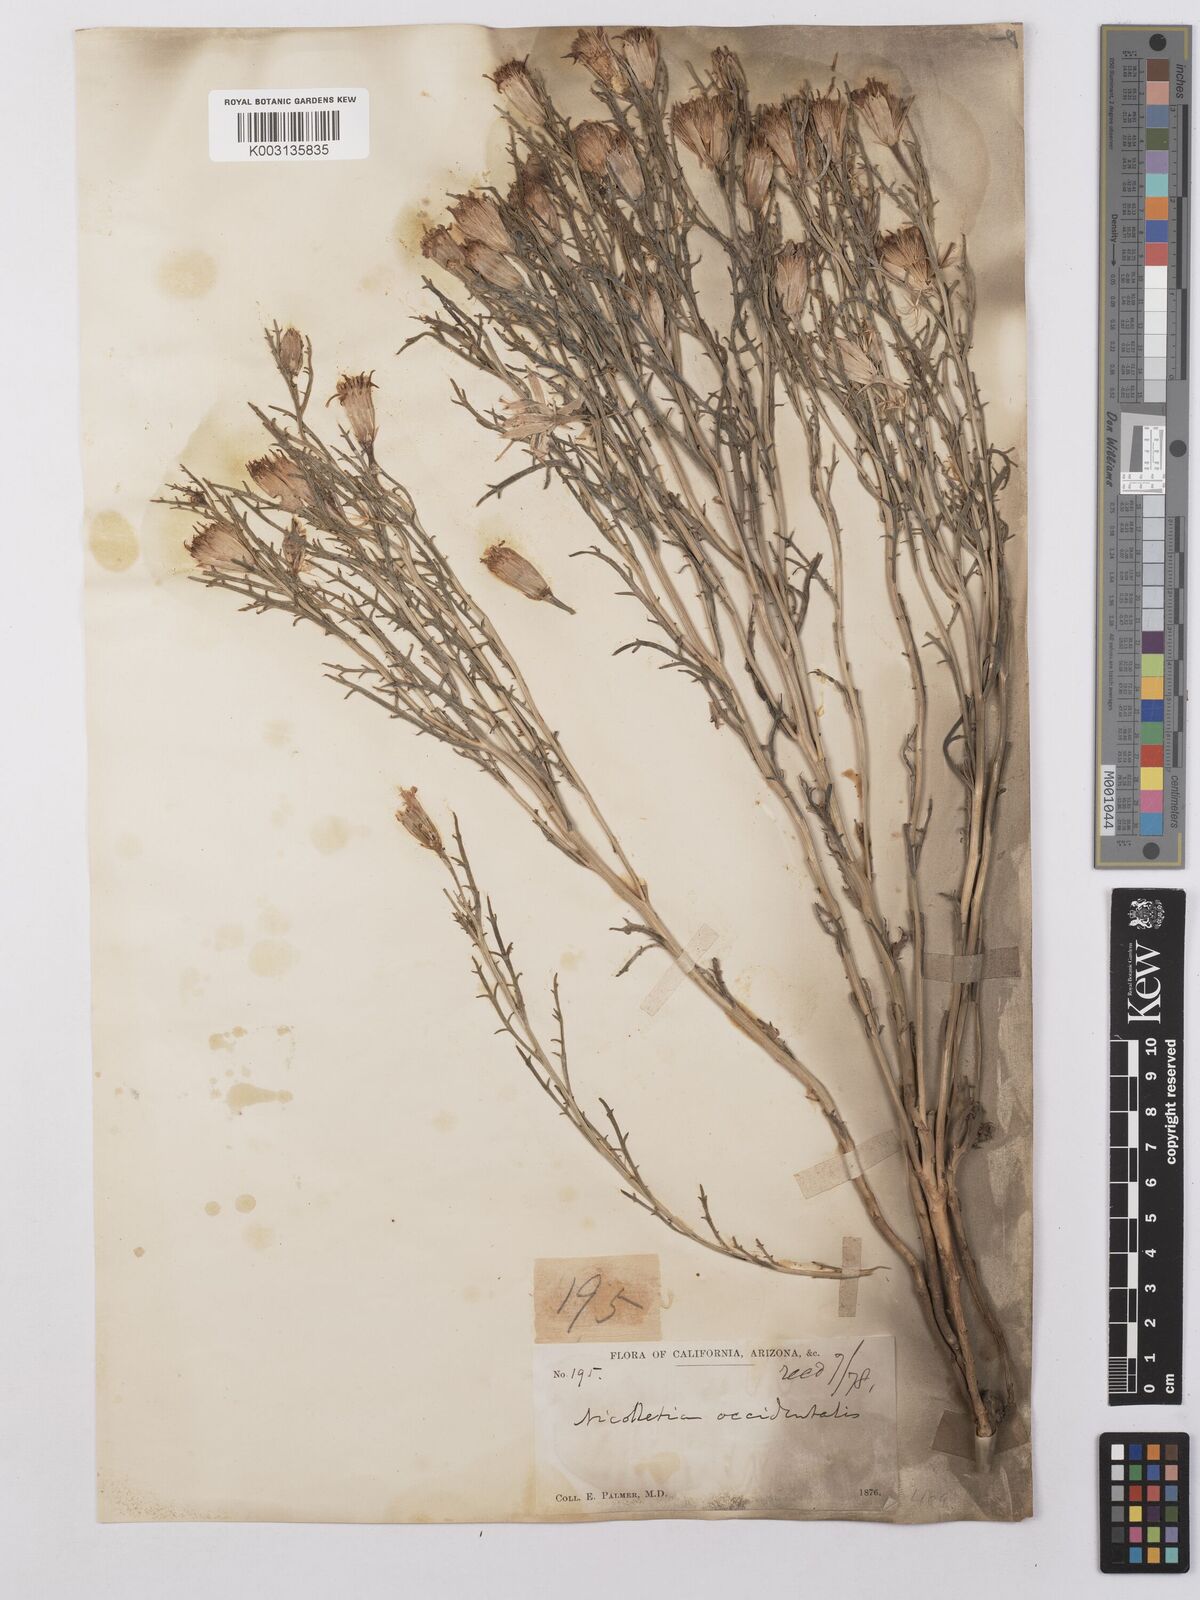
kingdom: Plantae
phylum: Tracheophyta
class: Magnoliopsida
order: Asterales
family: Asteraceae
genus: Nicolletia
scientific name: Nicolletia occidentalis
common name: Hole-in-the-sand-plant
